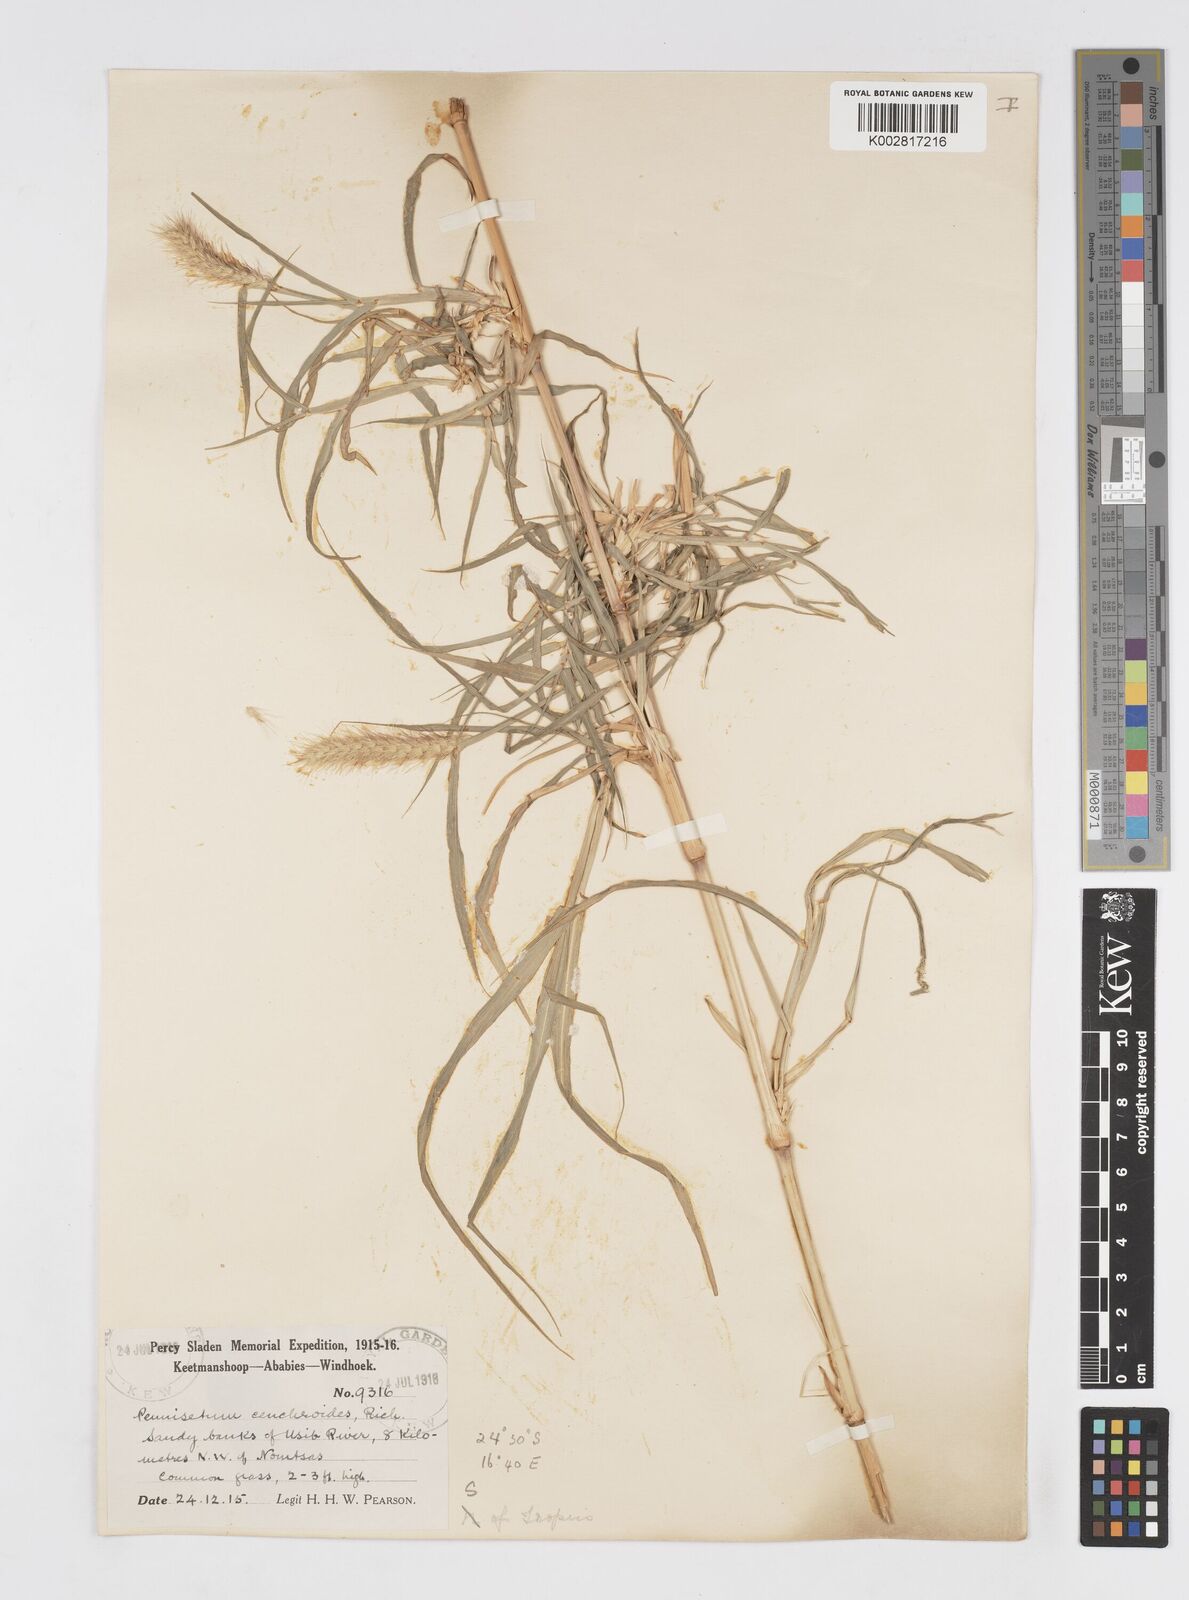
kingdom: Plantae
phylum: Tracheophyta
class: Liliopsida
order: Poales
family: Poaceae
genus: Cenchrus
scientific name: Cenchrus ciliaris
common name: Buffelgrass
